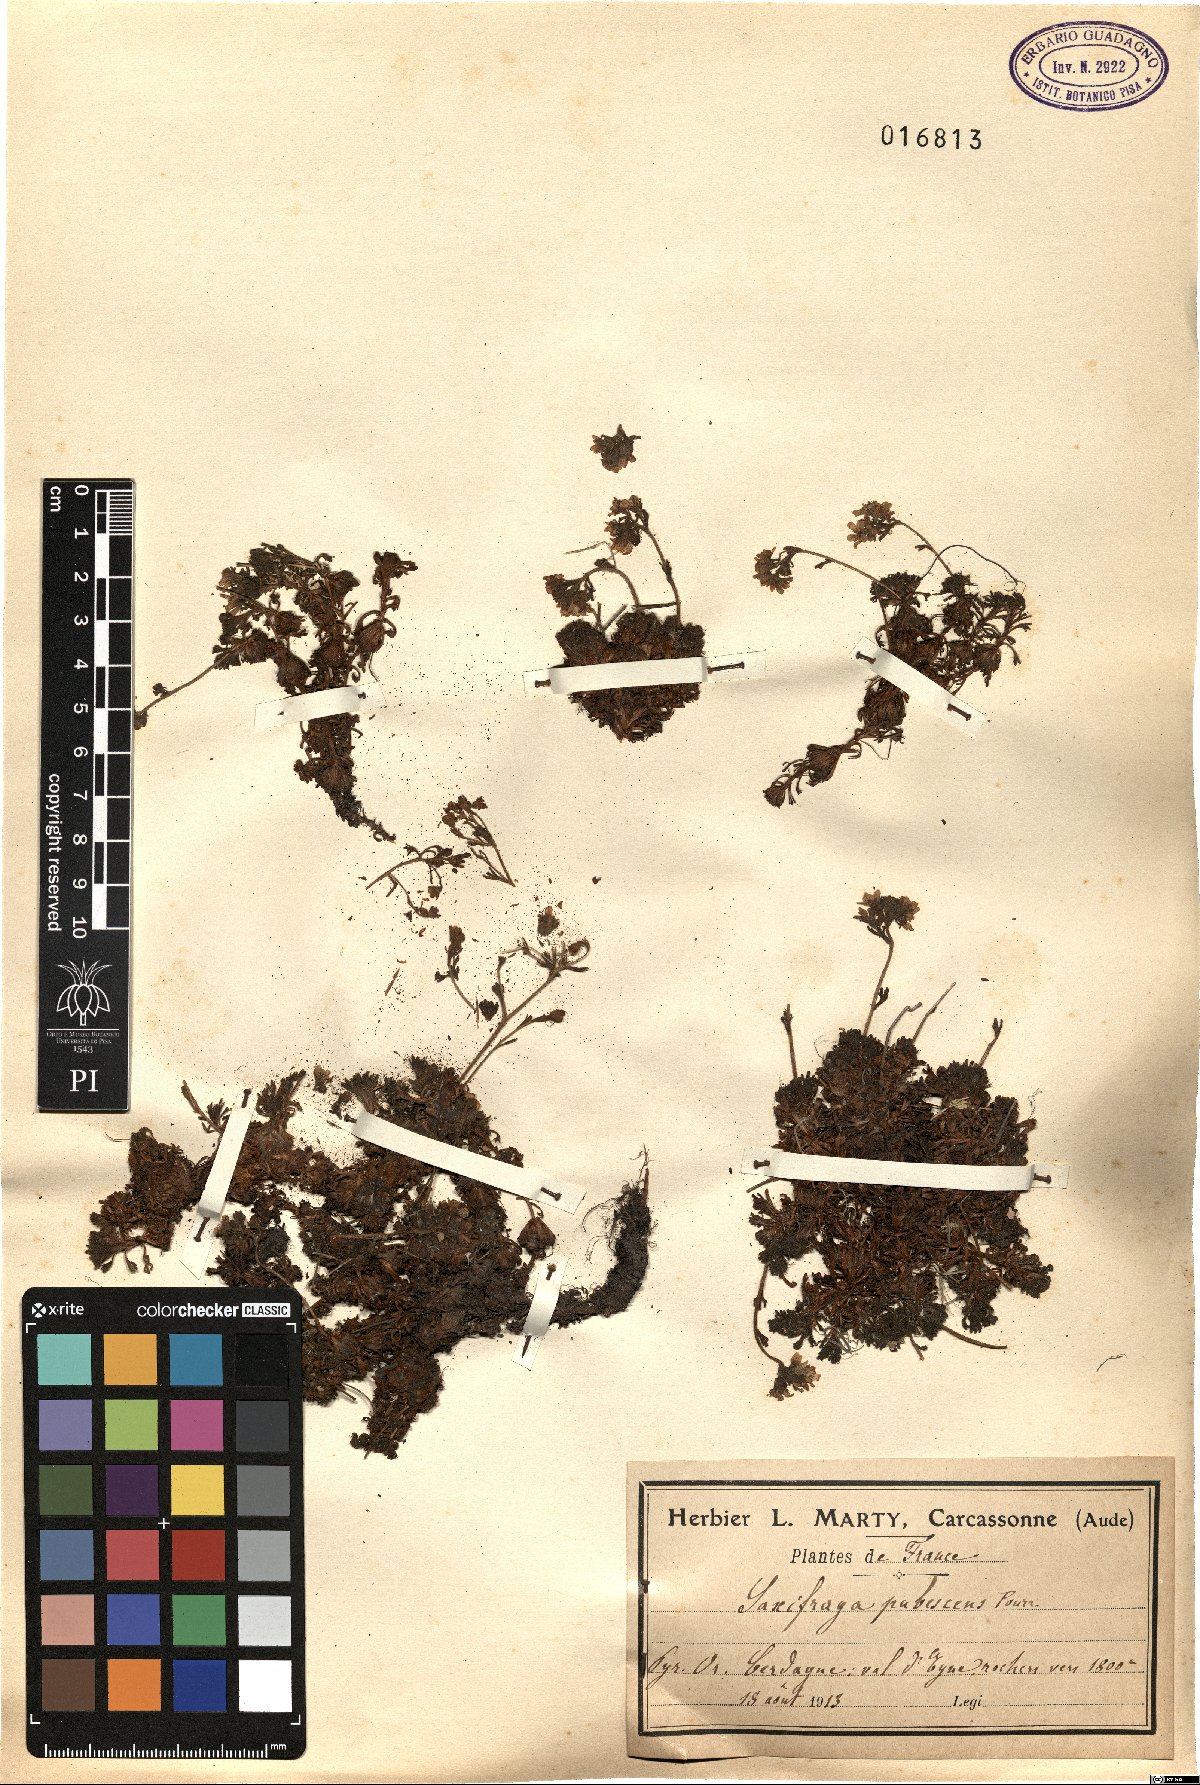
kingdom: Plantae
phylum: Tracheophyta
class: Magnoliopsida
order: Saxifragales
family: Saxifragaceae
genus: Saxifraga
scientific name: Saxifraga pubescens
